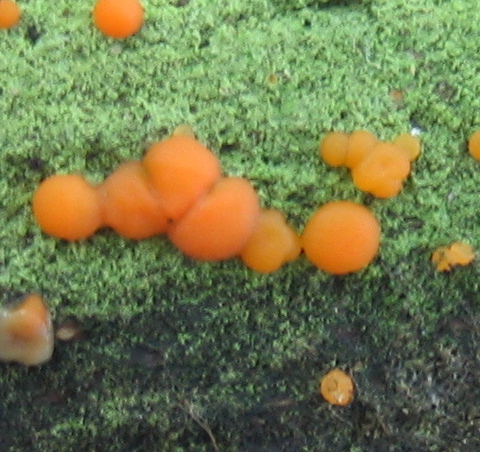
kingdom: Fungi
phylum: Basidiomycota
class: Dacrymycetes
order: Dacrymycetales
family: Dacrymycetaceae
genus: Dacrymyces
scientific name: Dacrymyces stillatus
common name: almindelig tåresvamp
